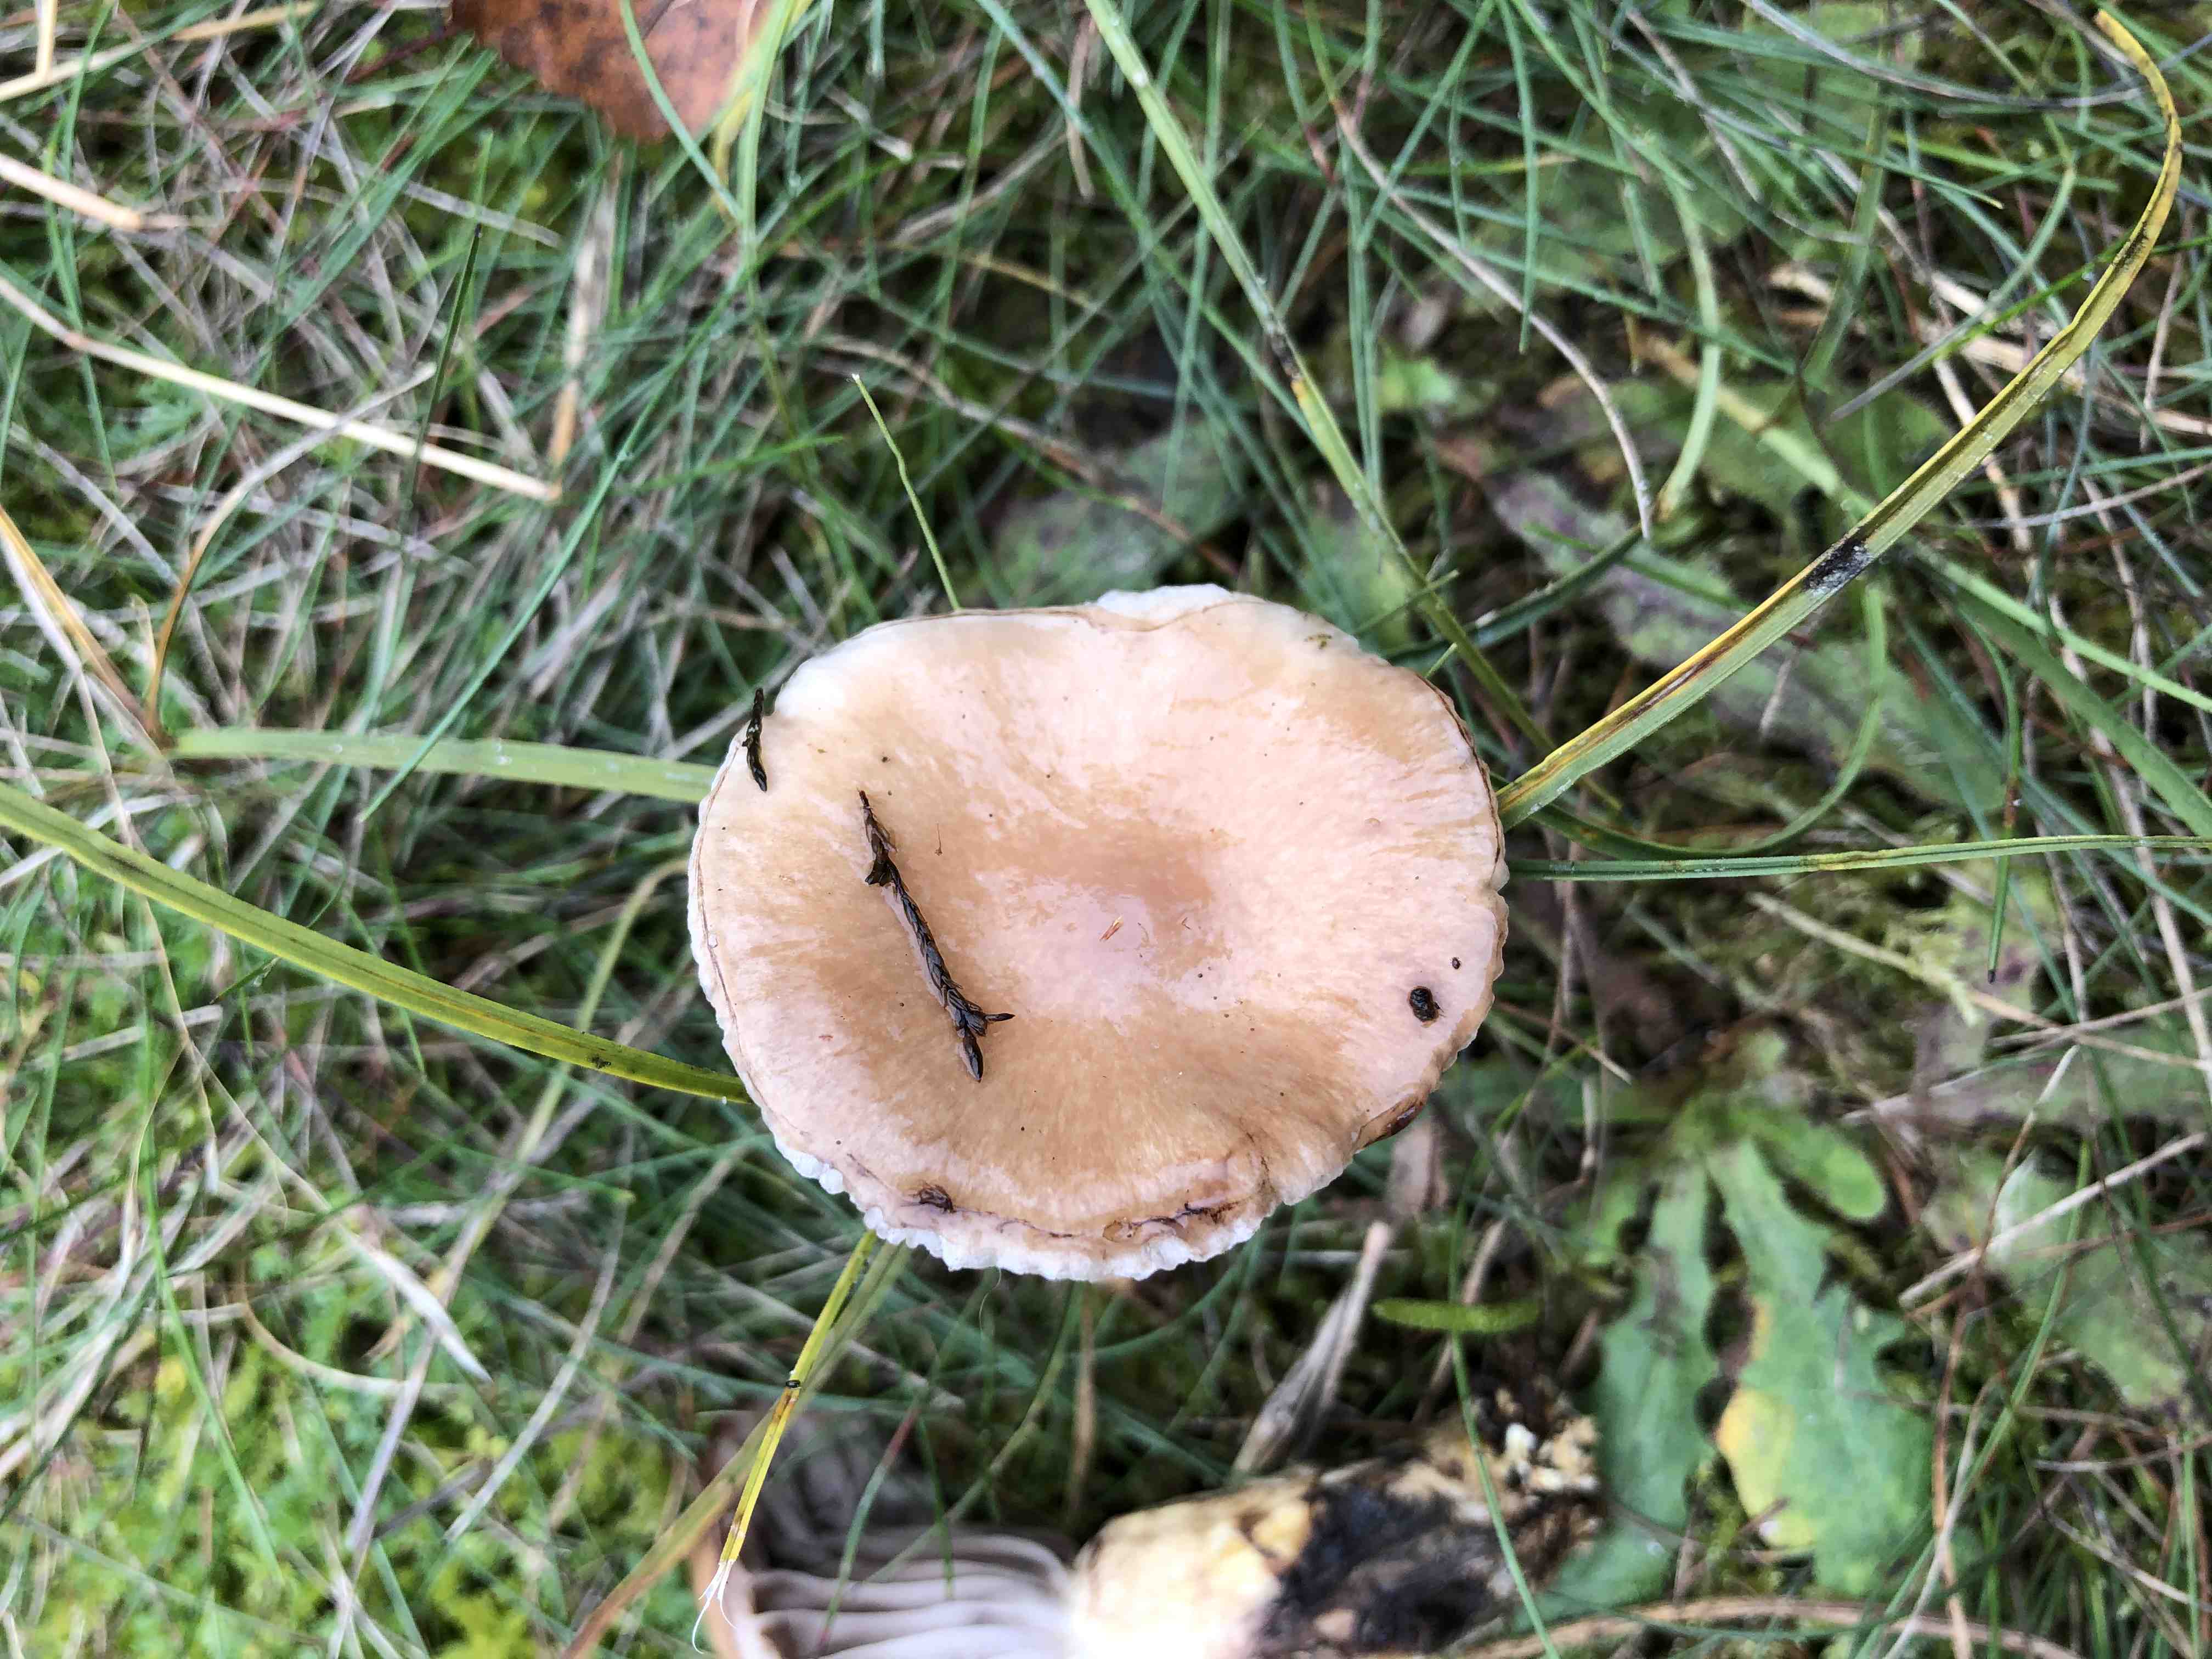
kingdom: Fungi
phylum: Basidiomycota
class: Agaricomycetes
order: Boletales
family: Gomphidiaceae
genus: Gomphidius
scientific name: Gomphidius glutinosus
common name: grå slimslør
